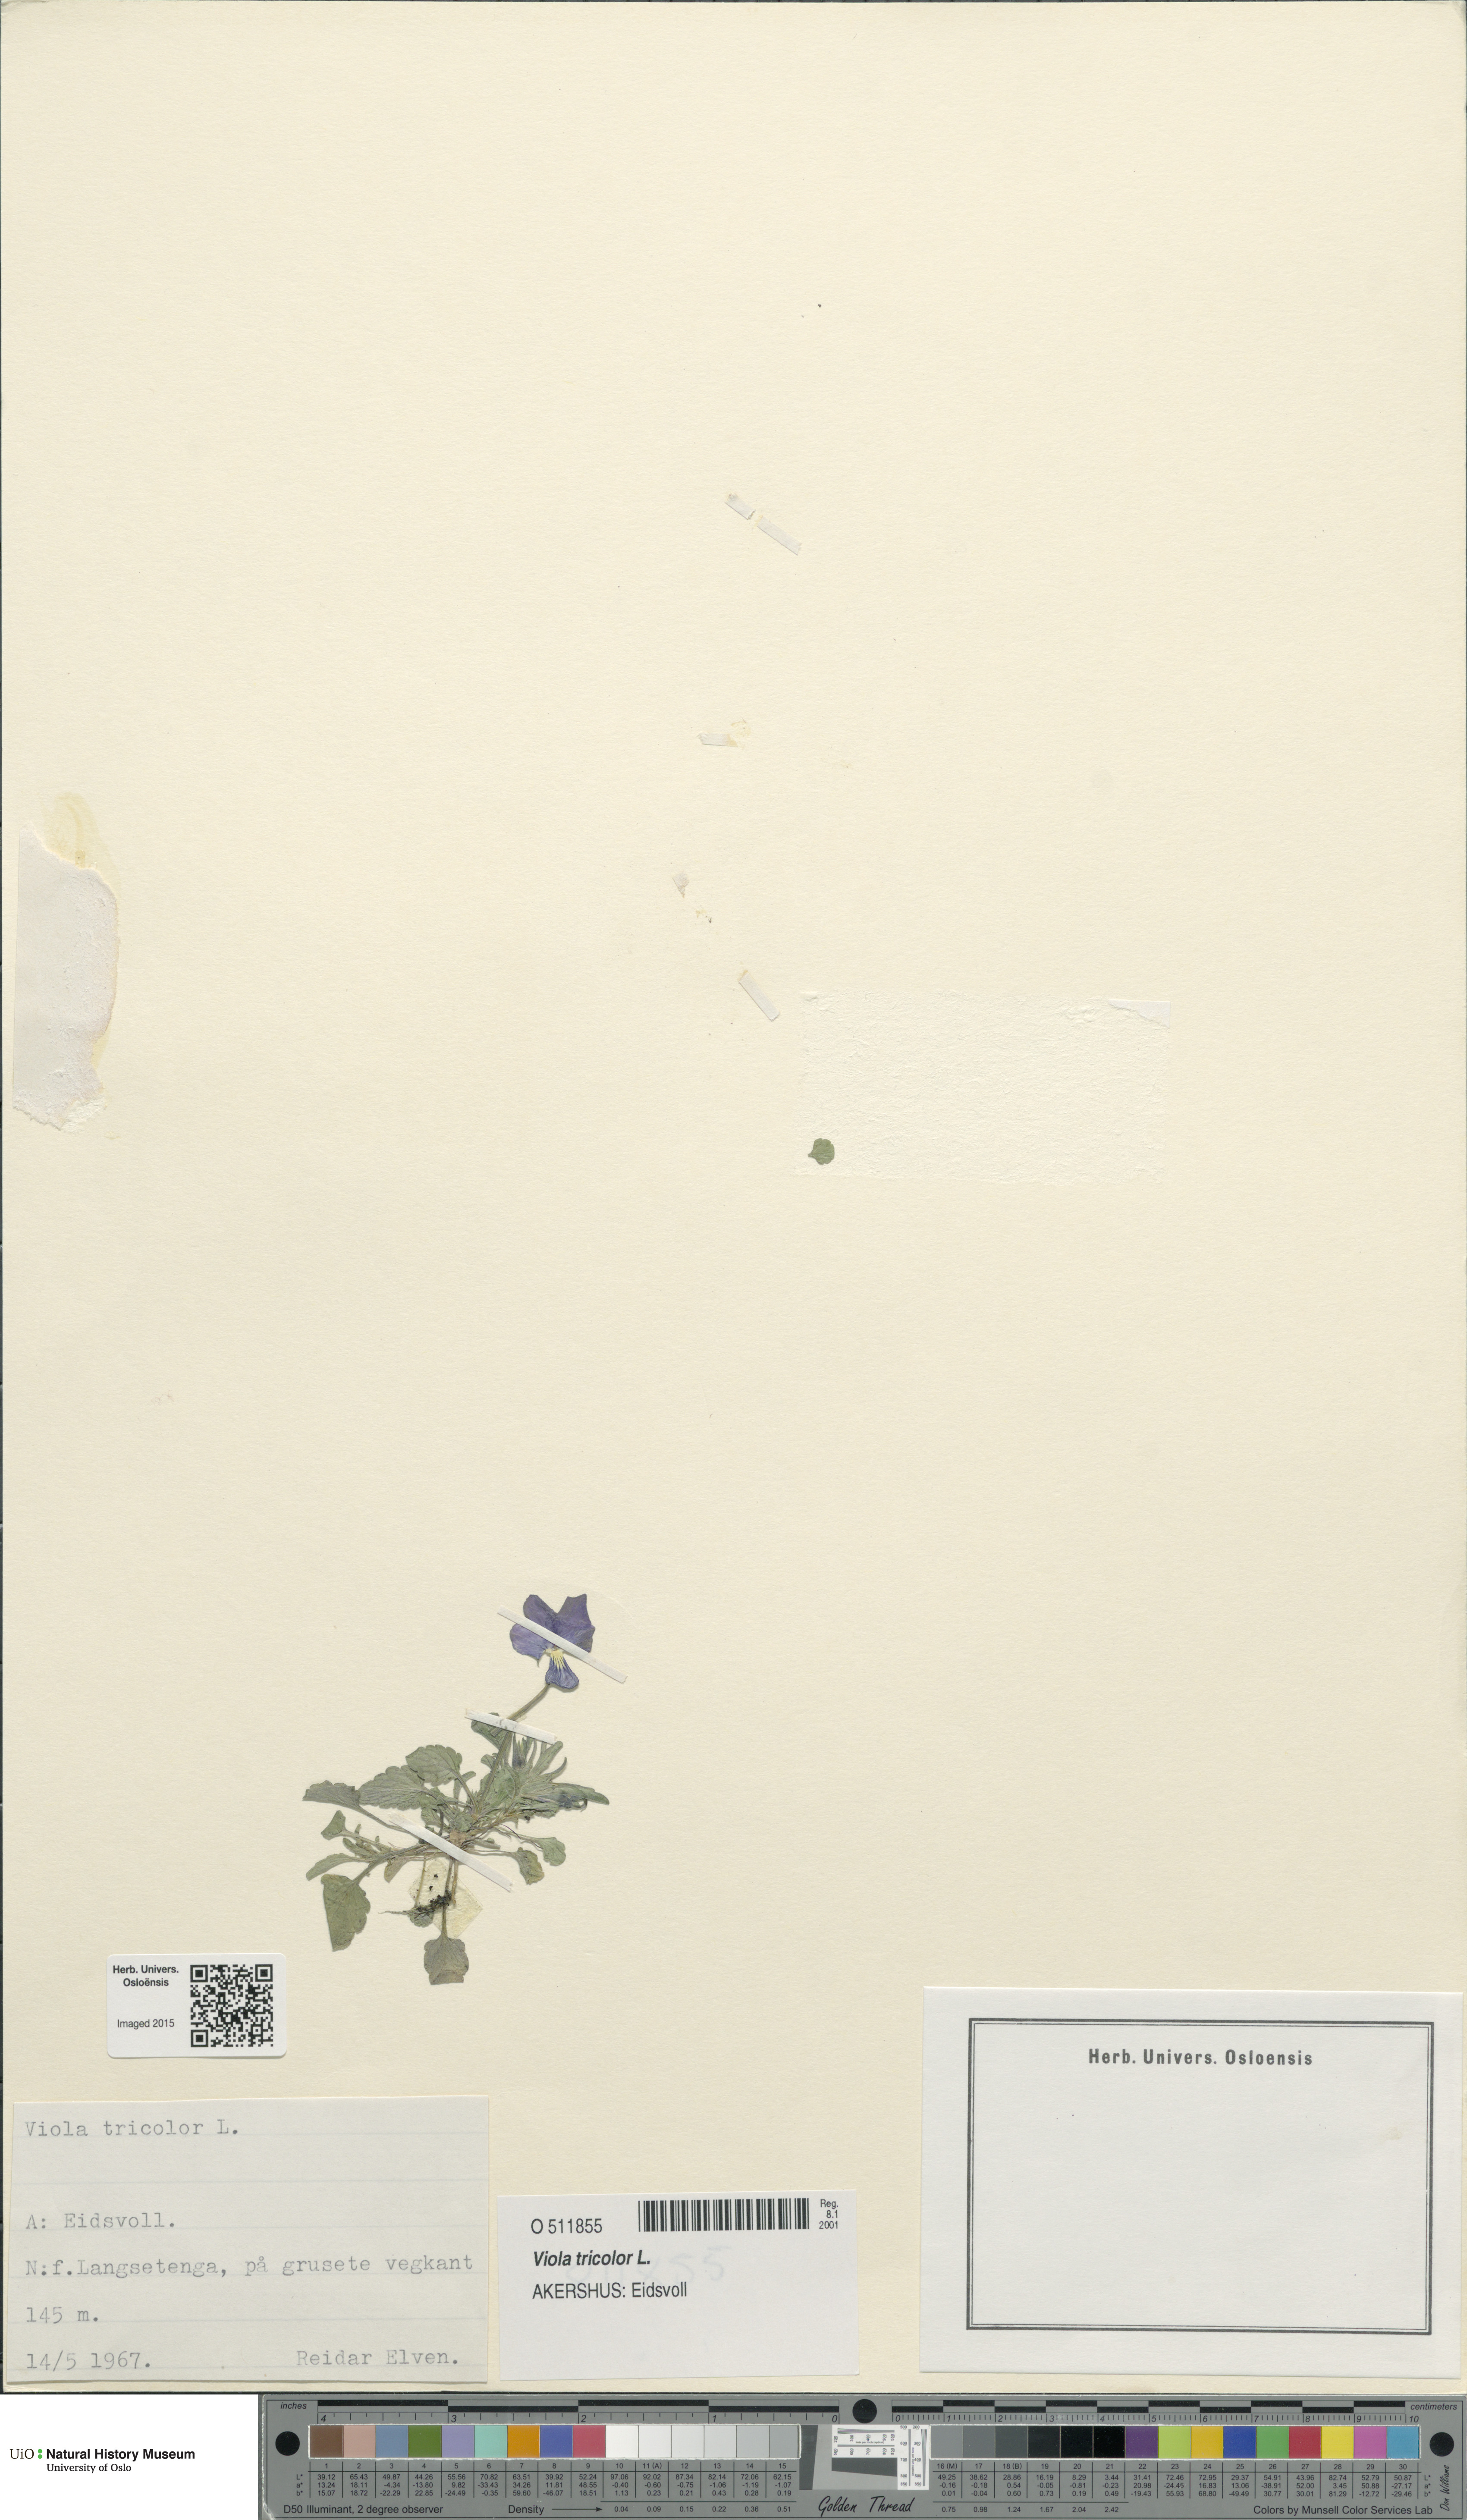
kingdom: Plantae
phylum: Tracheophyta
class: Magnoliopsida
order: Malpighiales
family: Violaceae
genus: Viola
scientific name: Viola tricolor
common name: Pansy
